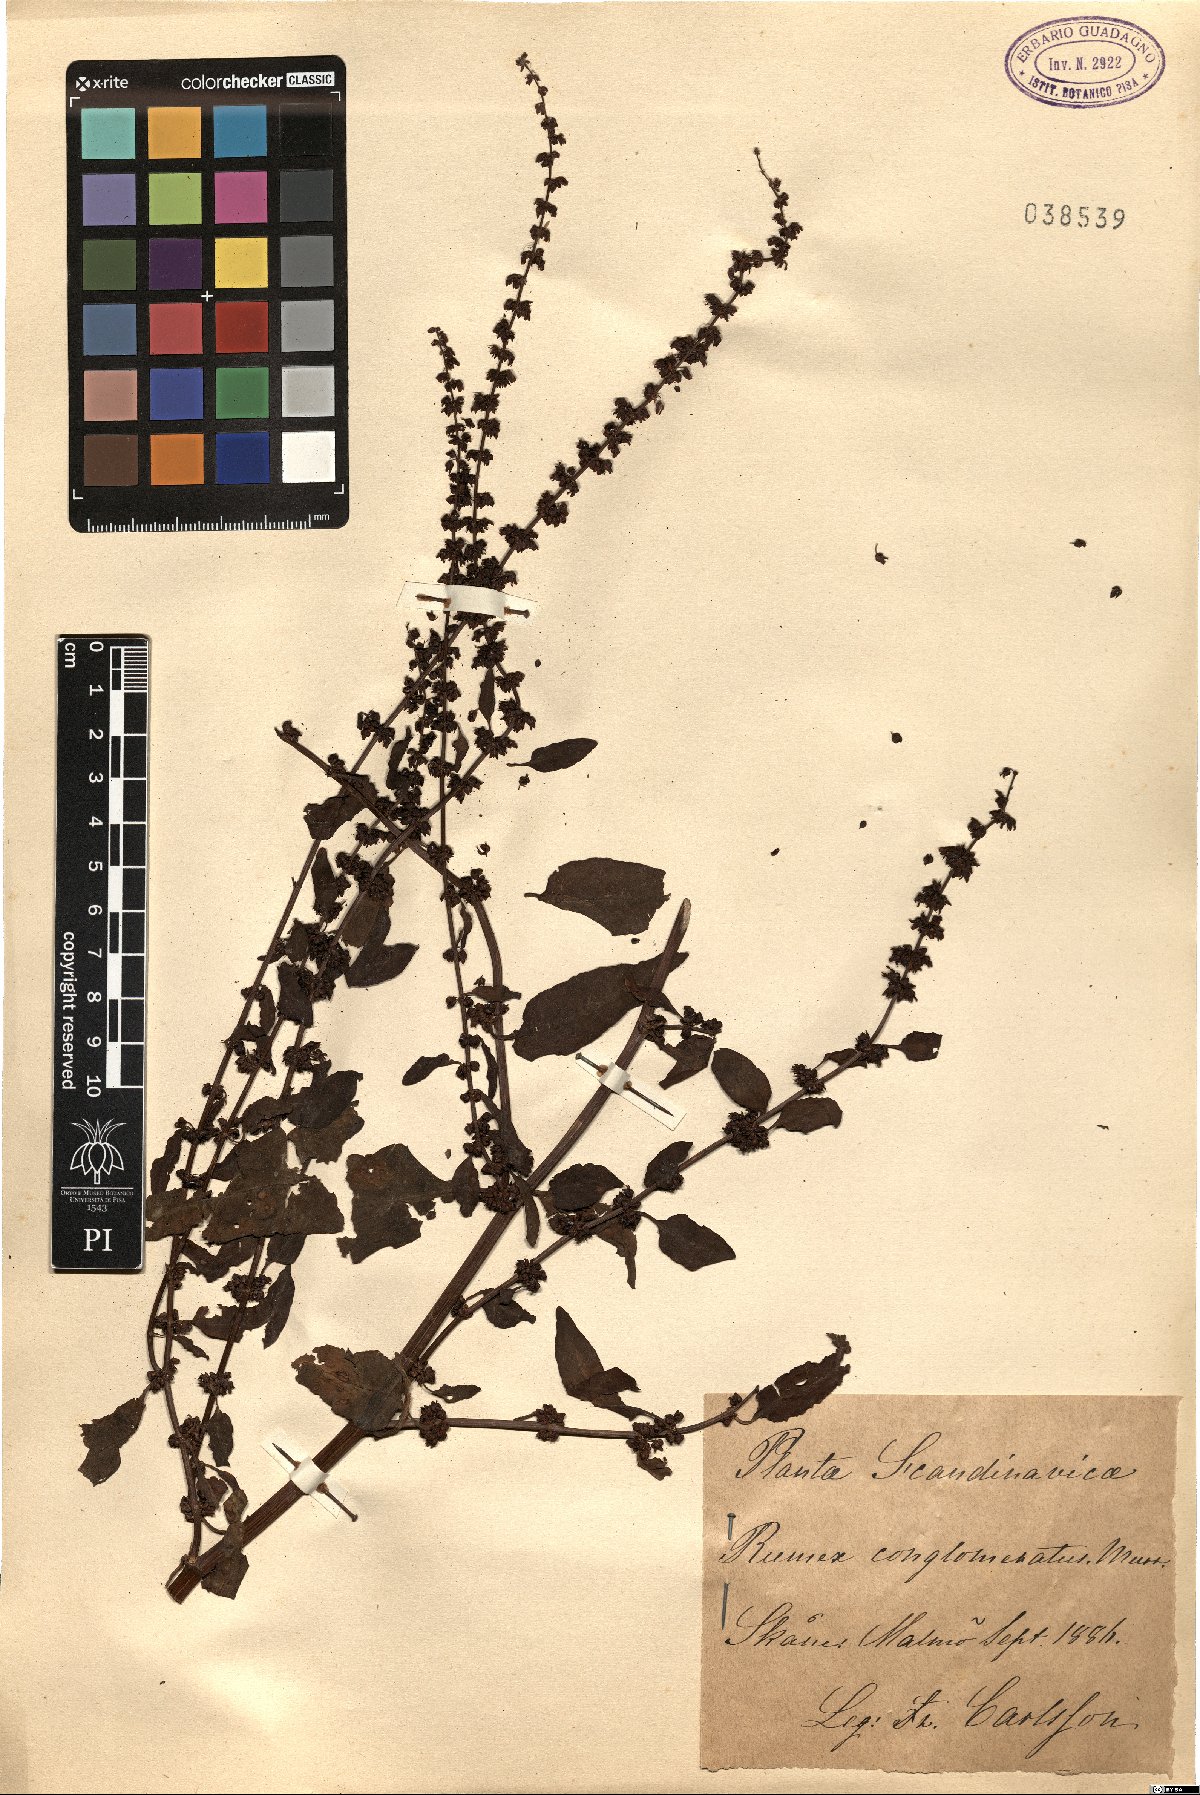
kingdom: Plantae
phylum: Tracheophyta
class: Magnoliopsida
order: Caryophyllales
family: Polygonaceae
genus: Rumex
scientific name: Rumex conglomeratus
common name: Clustered dock
